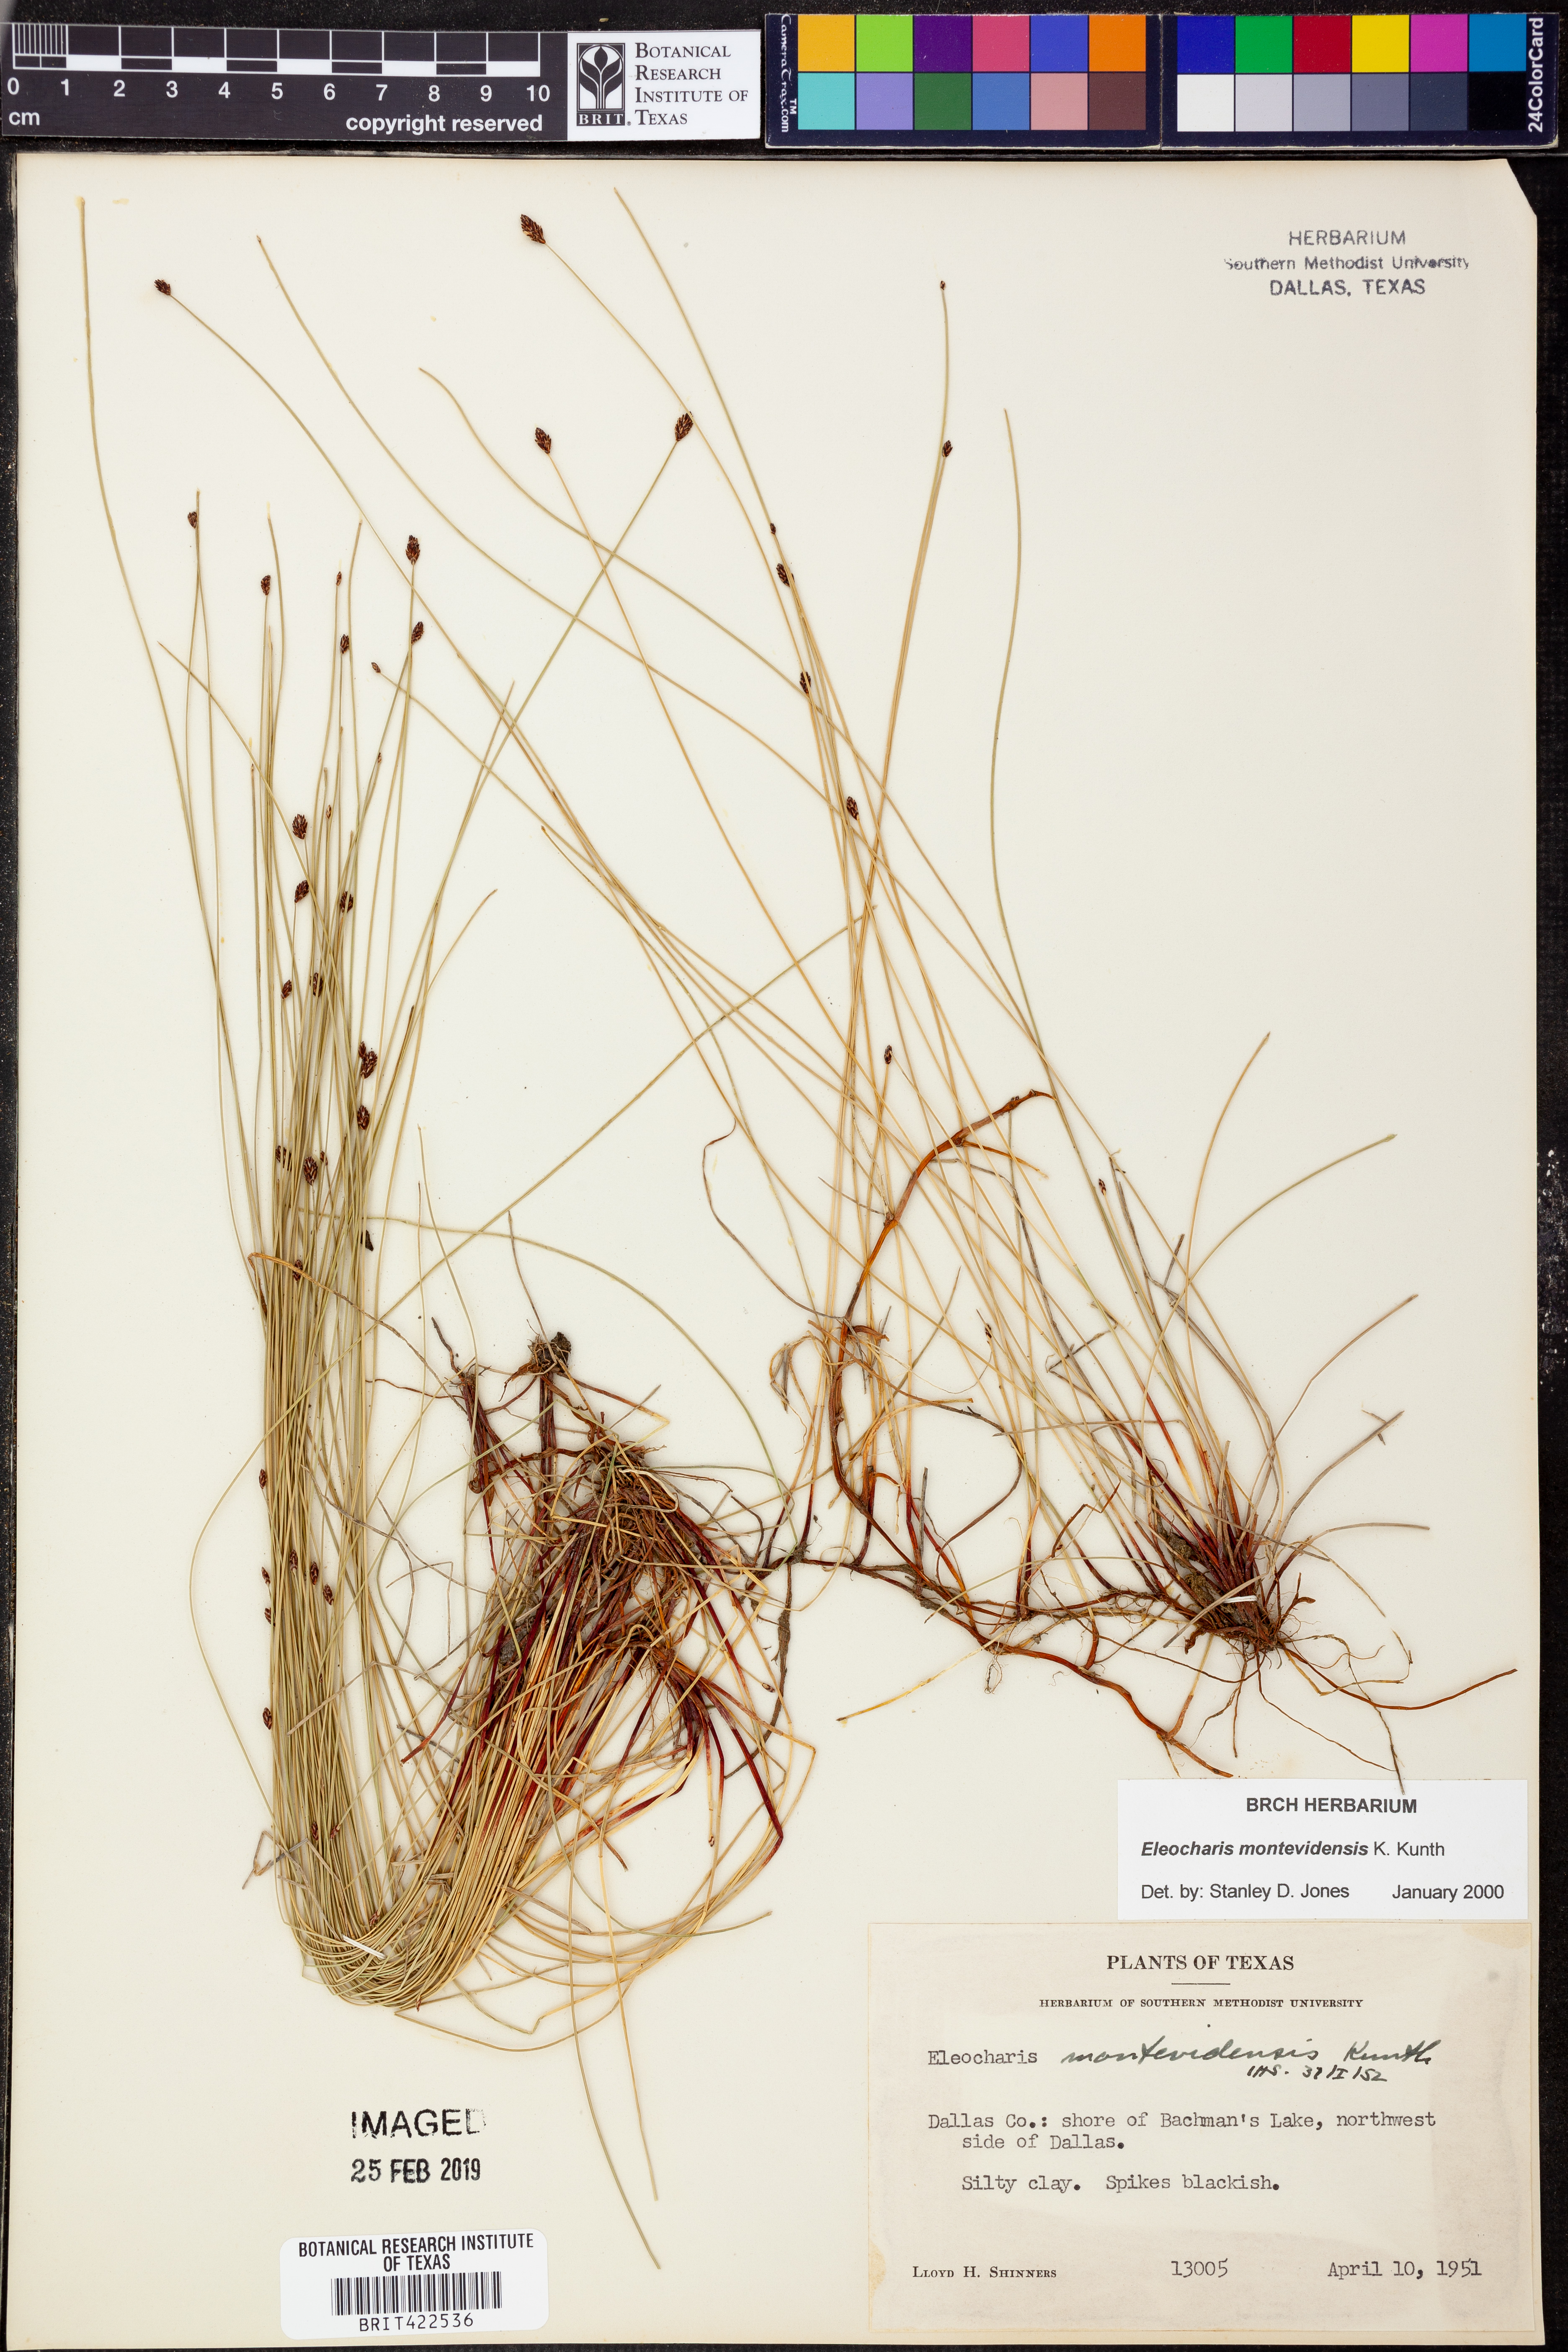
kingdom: Plantae
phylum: Tracheophyta
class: Liliopsida
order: Poales
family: Cyperaceae
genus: Eleocharis
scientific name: Eleocharis montevidensis
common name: Sand spike-rush
